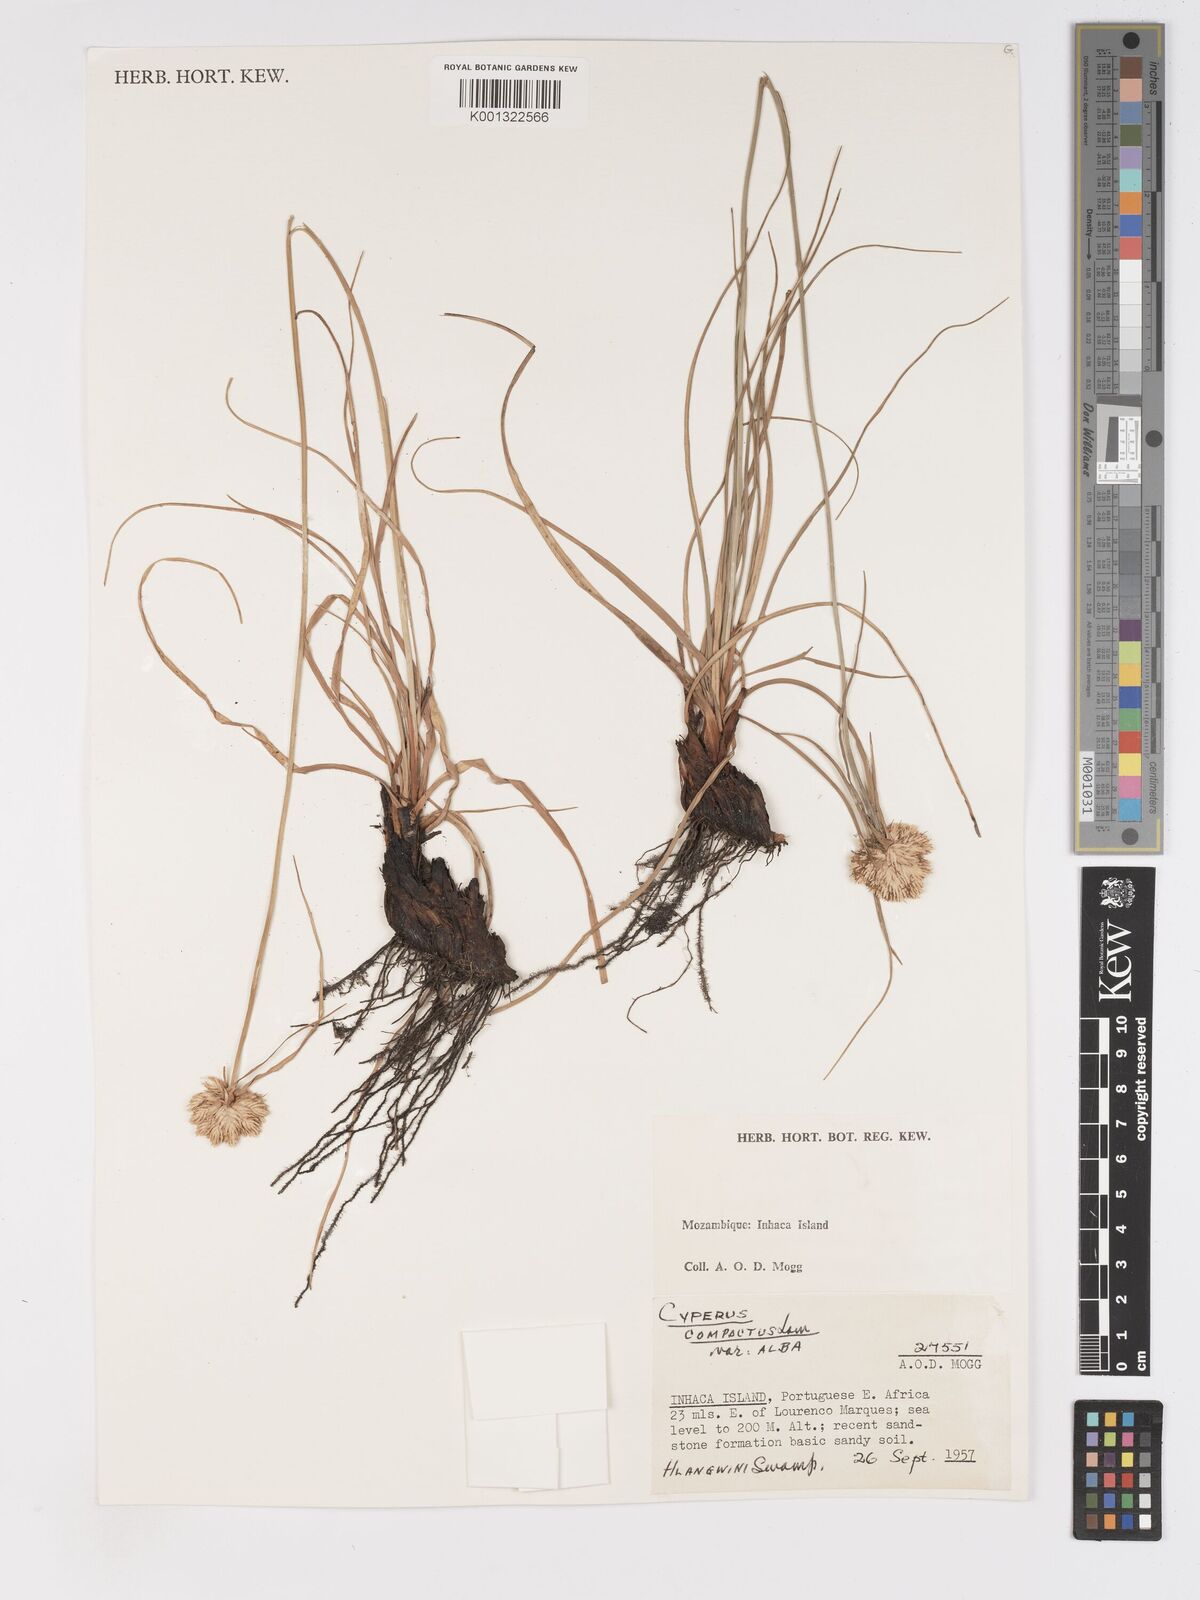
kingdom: Plantae
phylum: Tracheophyta
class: Liliopsida
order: Poales
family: Cyperaceae
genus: Cyperus
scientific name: Cyperus niveus
